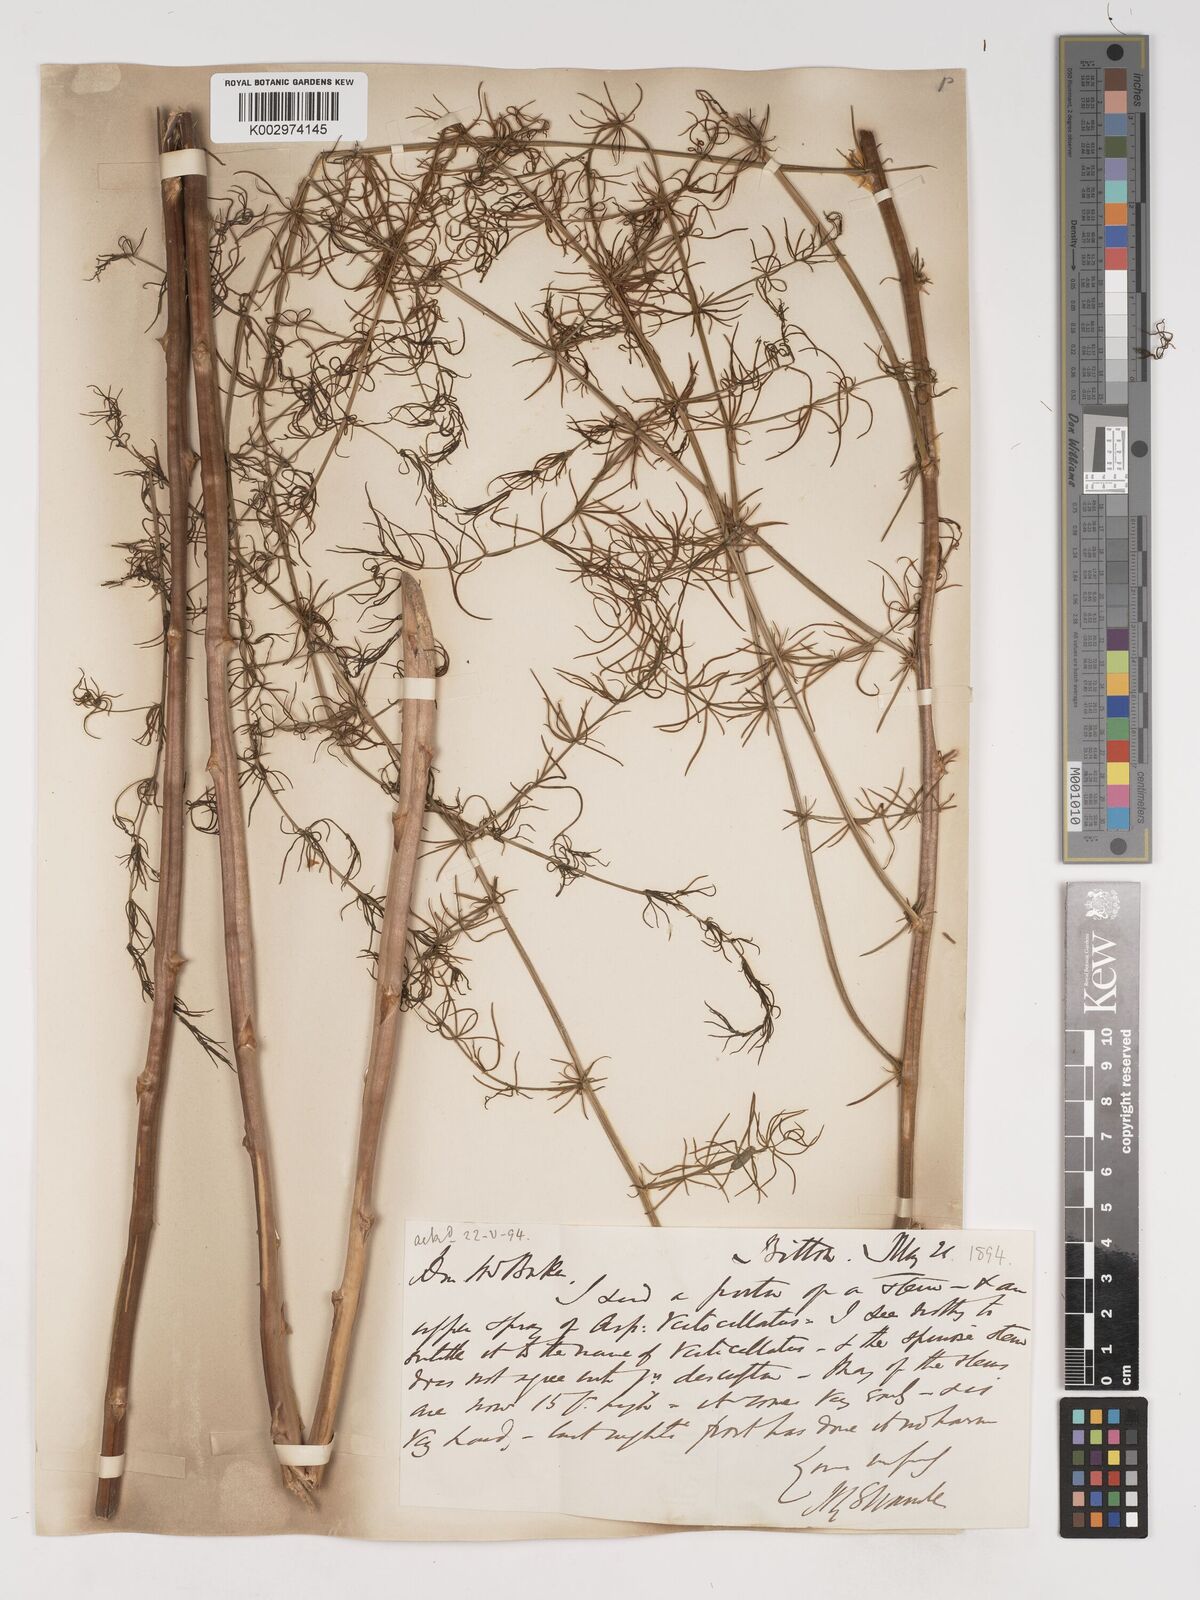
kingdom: Plantae
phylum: Tracheophyta
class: Liliopsida
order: Asparagales
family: Asparagaceae
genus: Asparagus
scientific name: Asparagus verticillatus
